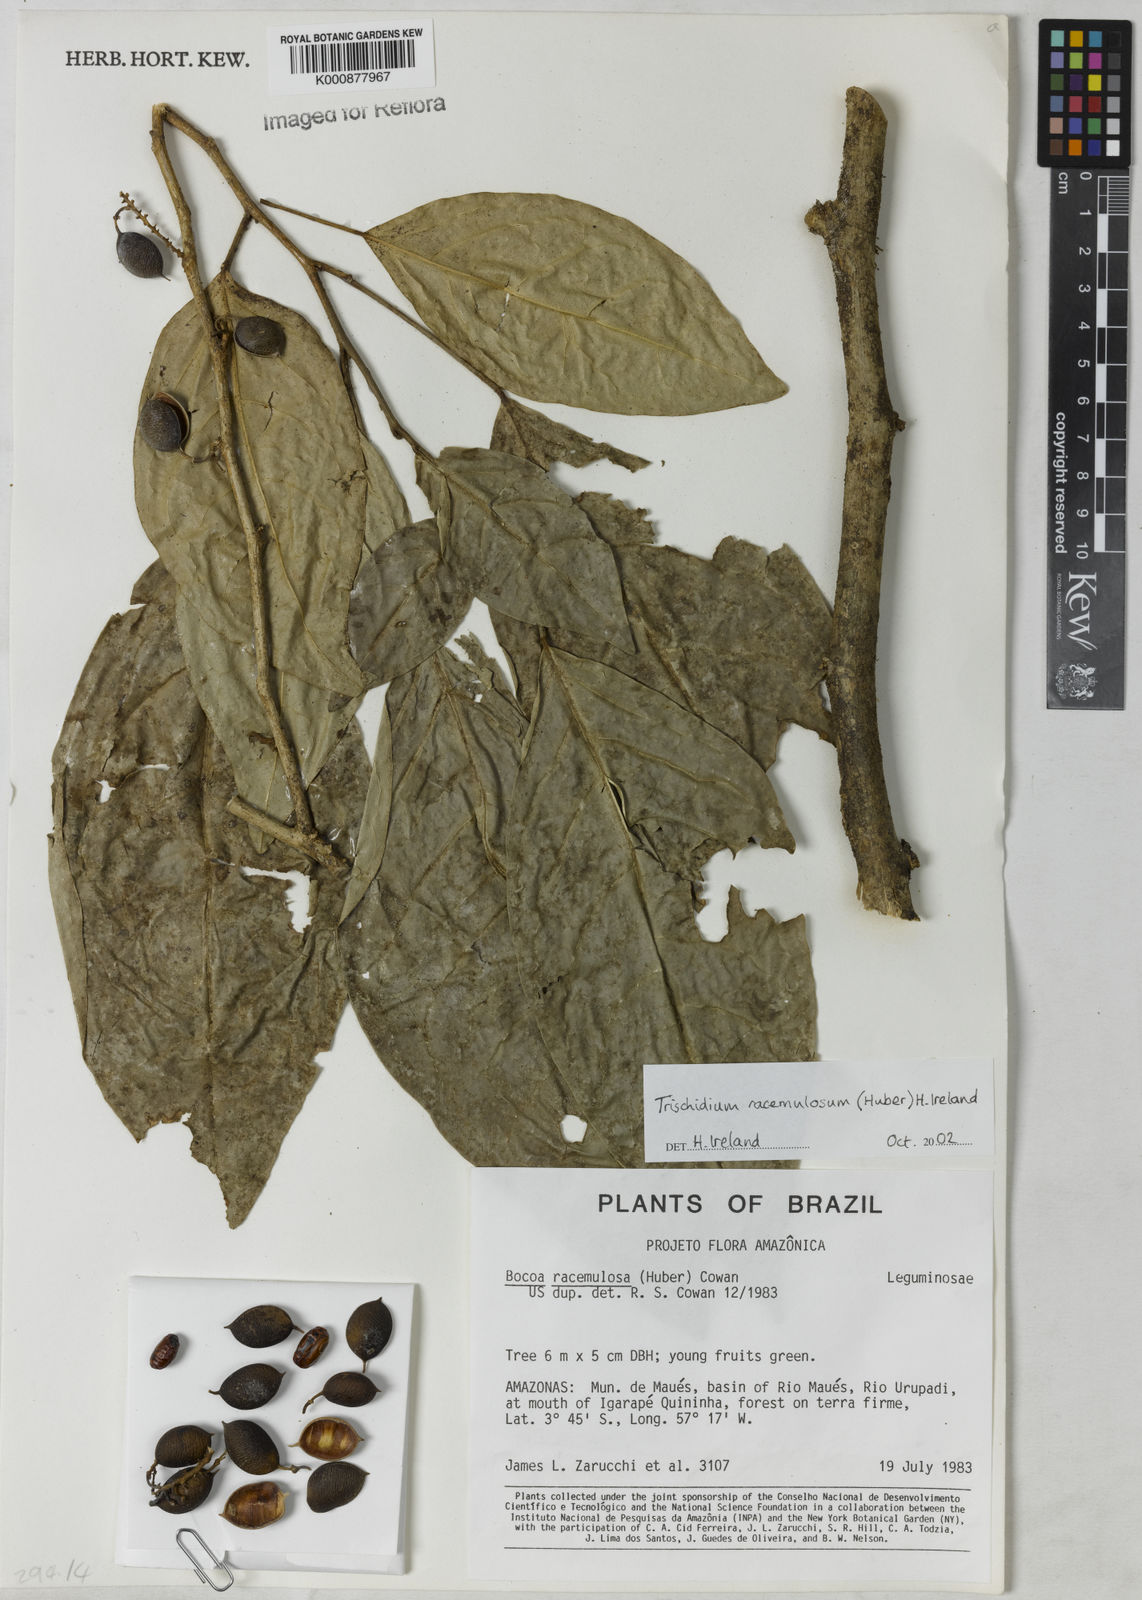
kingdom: Plantae
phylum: Tracheophyta
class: Magnoliopsida
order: Fabales
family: Fabaceae
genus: Trischidium
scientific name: Trischidium racemulosum
